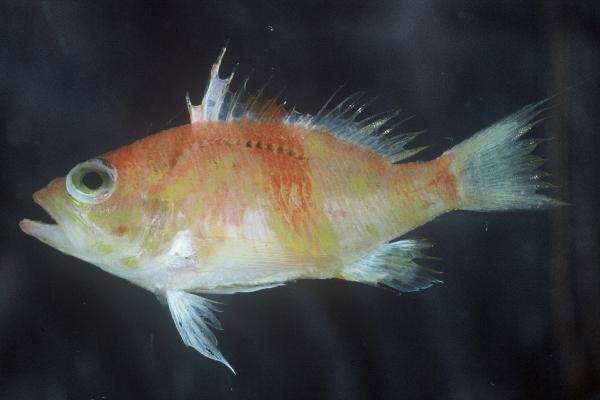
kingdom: Animalia
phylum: Chordata
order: Perciformes
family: Serranidae
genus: Plectranthias
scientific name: Plectranthias morgansi
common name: Flagfin
